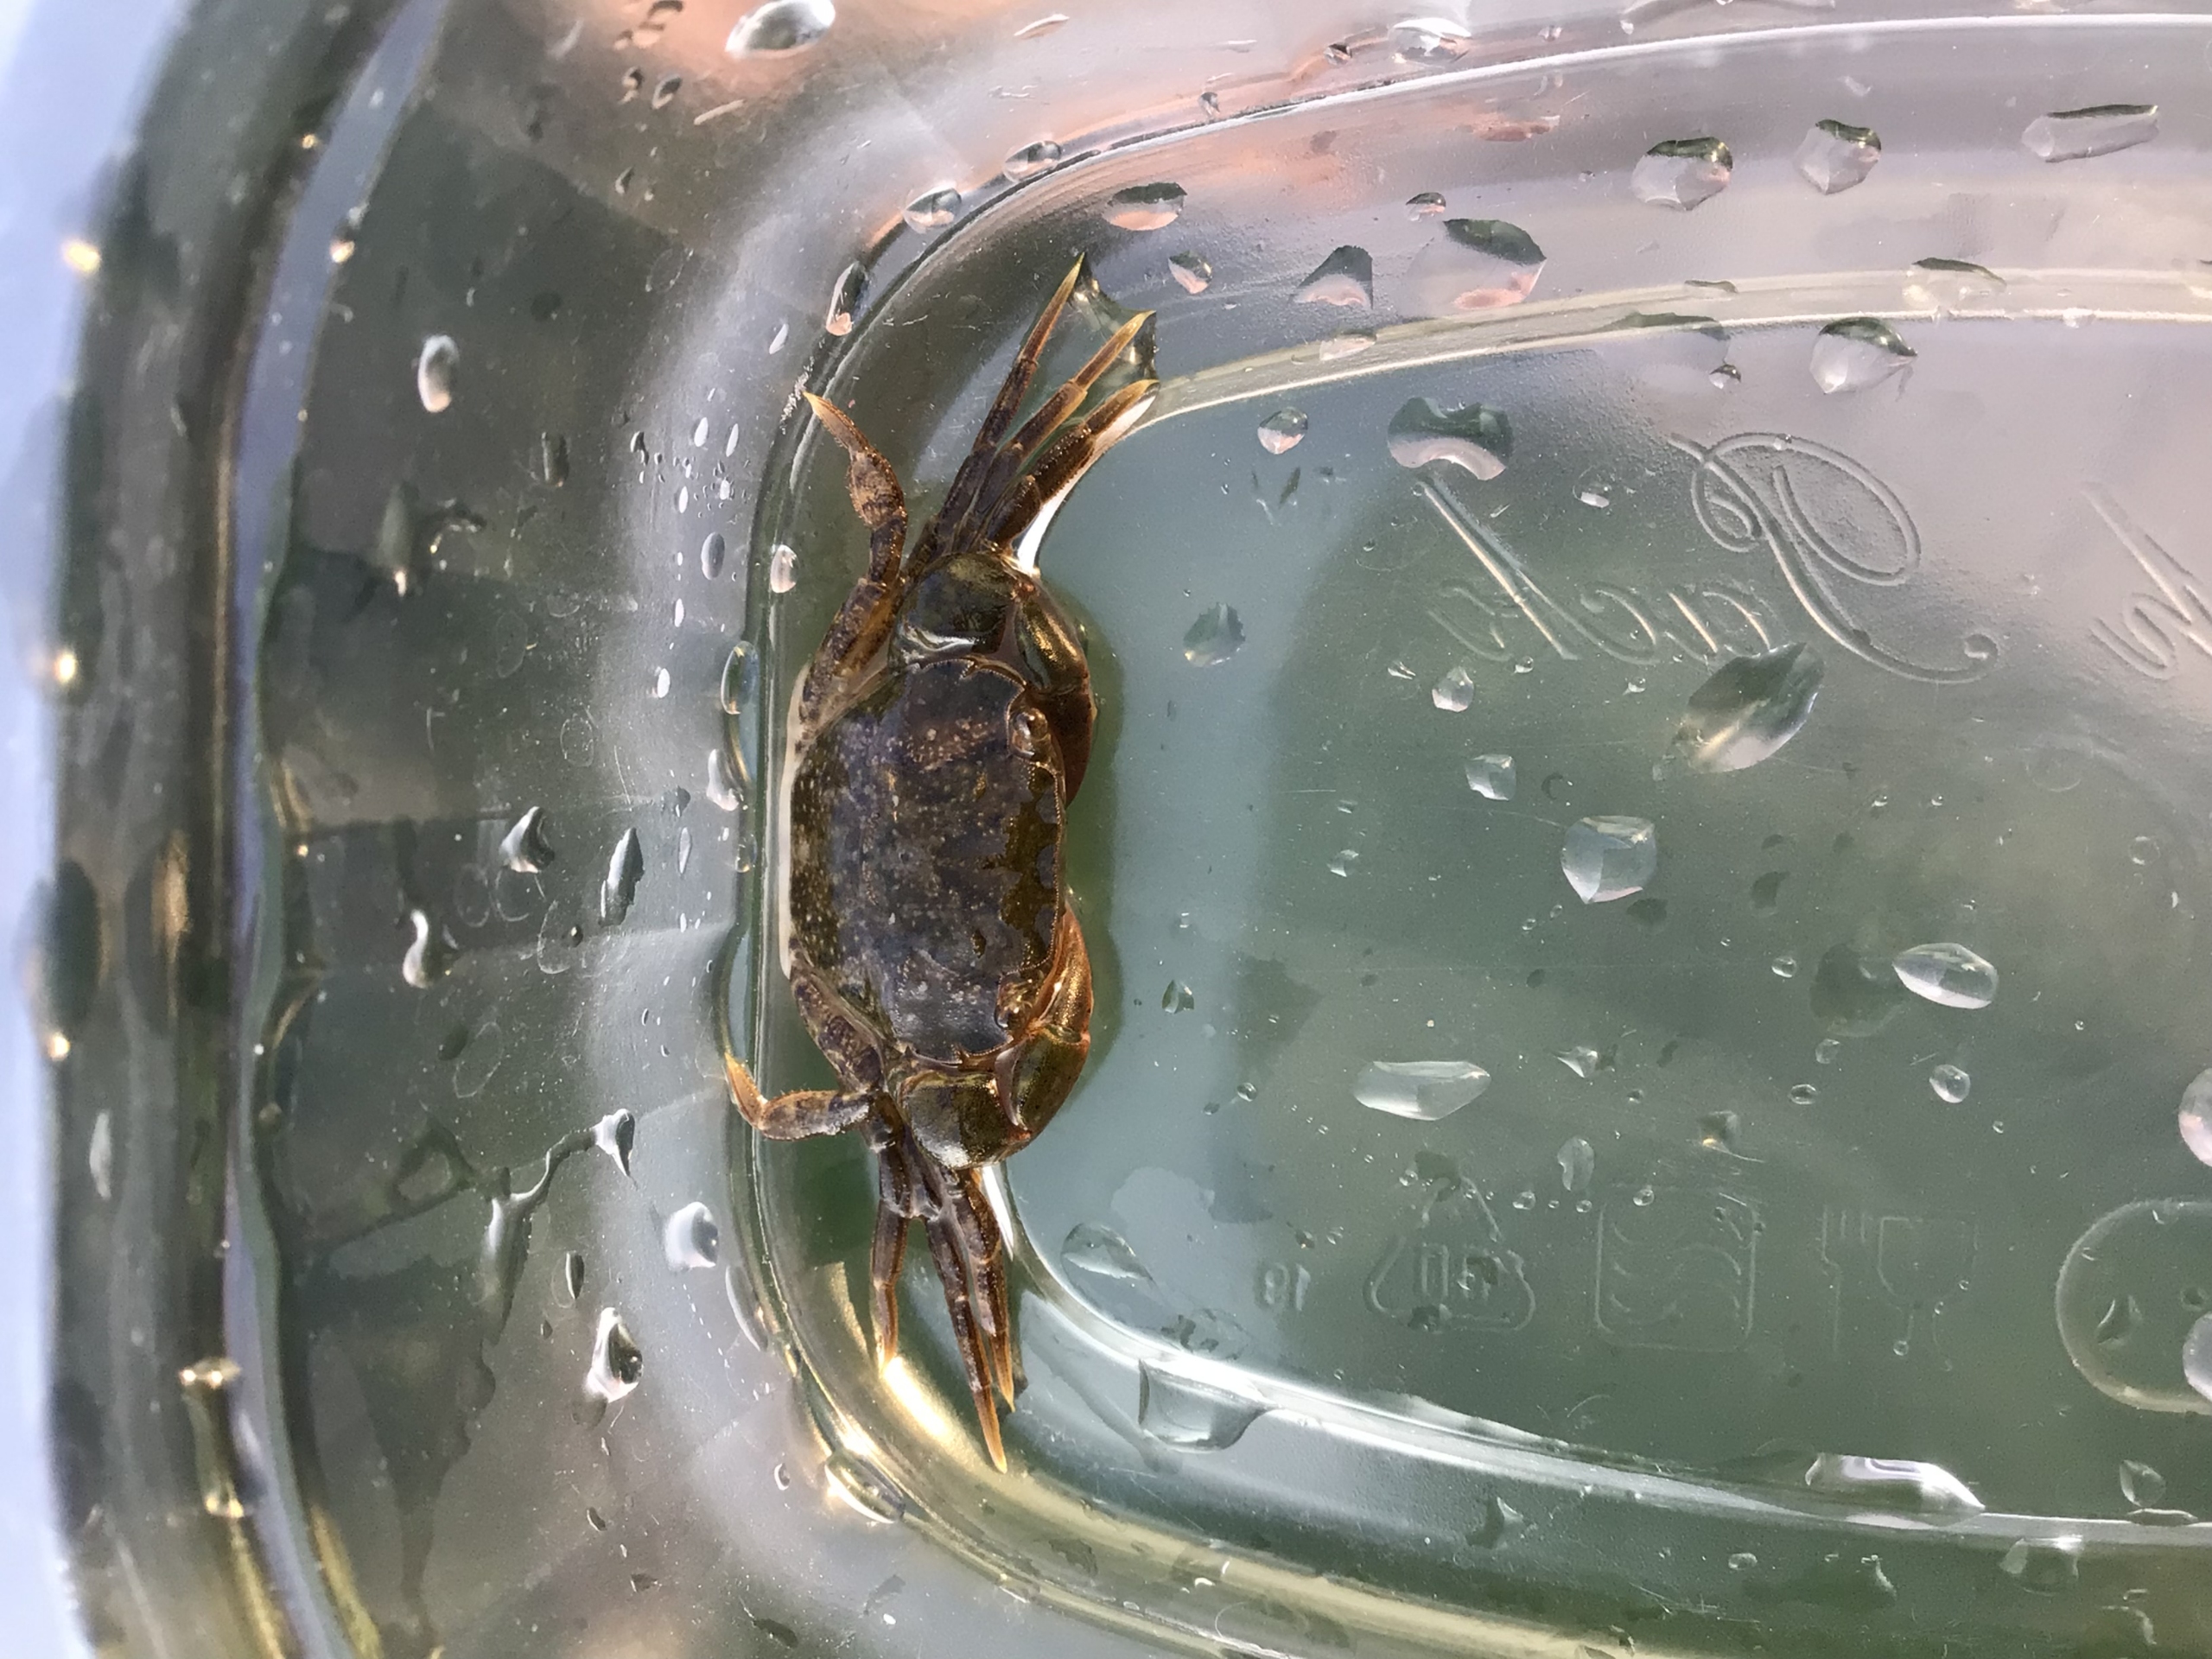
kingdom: Animalia
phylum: Arthropoda
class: Malacostraca
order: Decapoda
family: Varunidae
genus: Hemigrapsus
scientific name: Hemigrapsus takanoi
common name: Pensel-klippekrabbe
